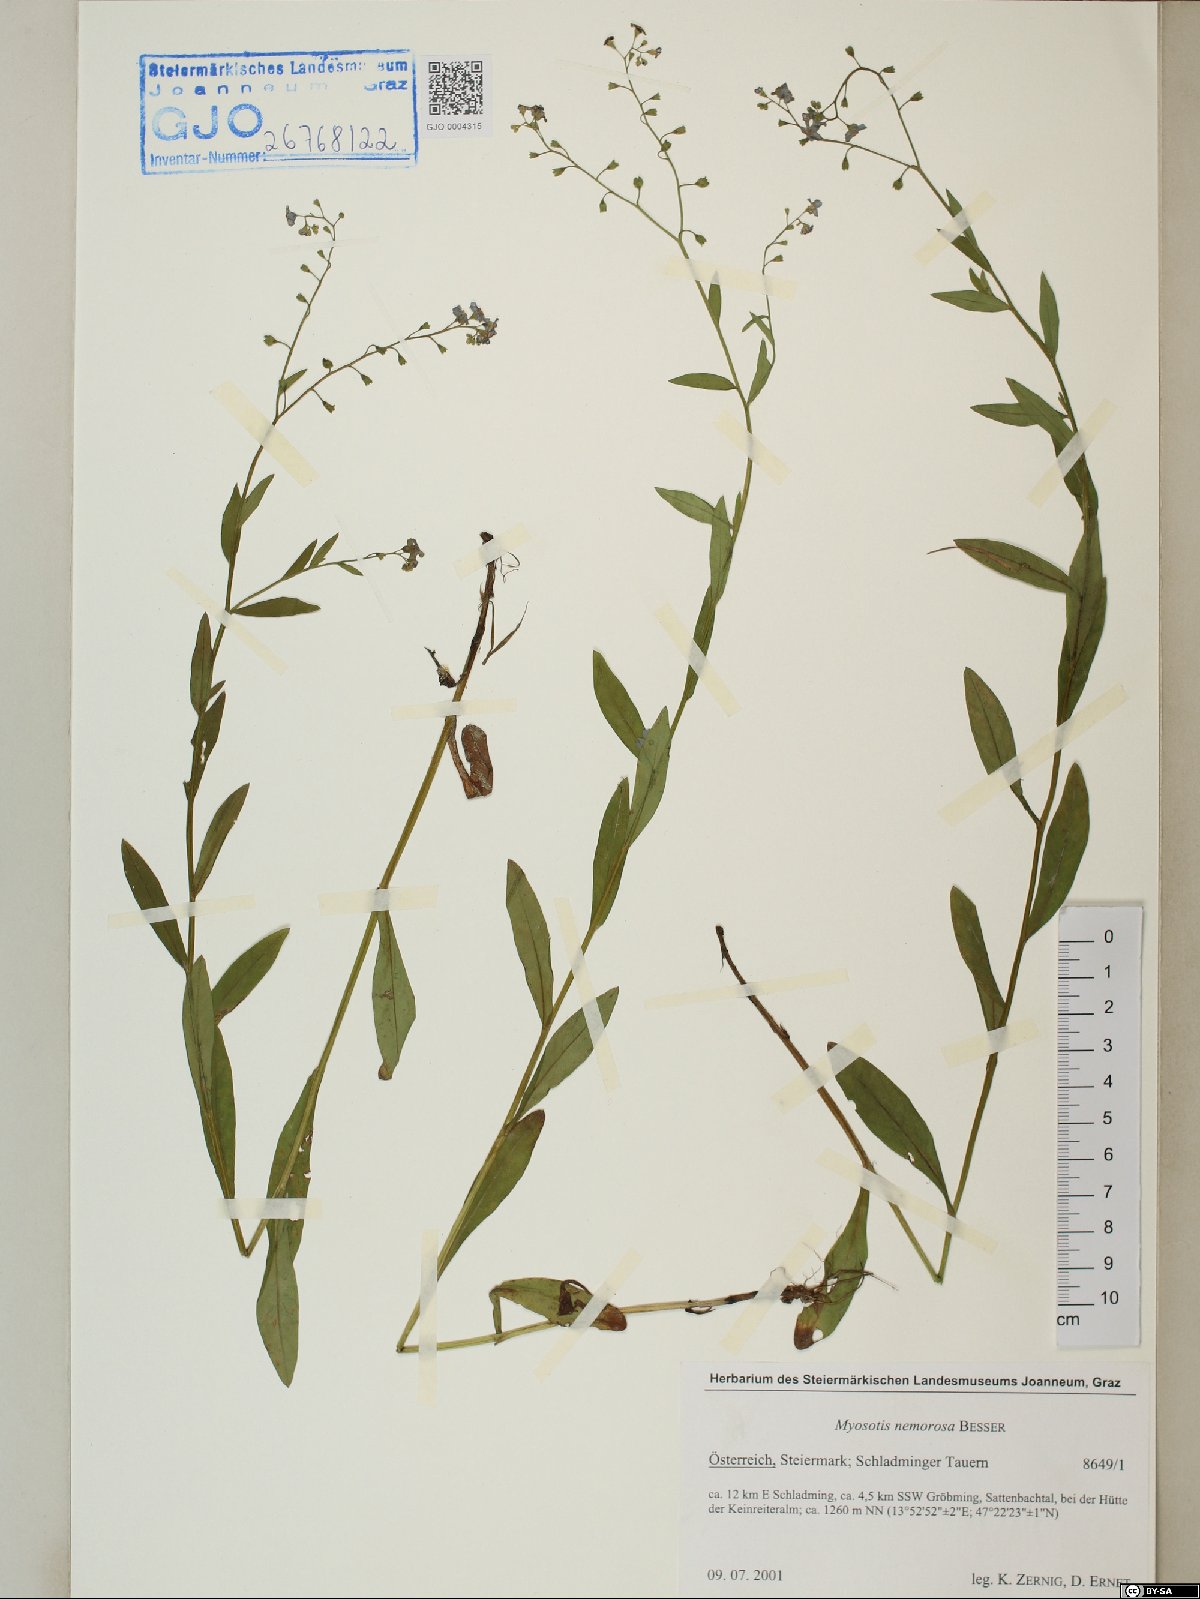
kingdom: Plantae
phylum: Tracheophyta
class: Magnoliopsida
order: Boraginales
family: Boraginaceae
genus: Myosotis
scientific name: Myosotis nemorosa
